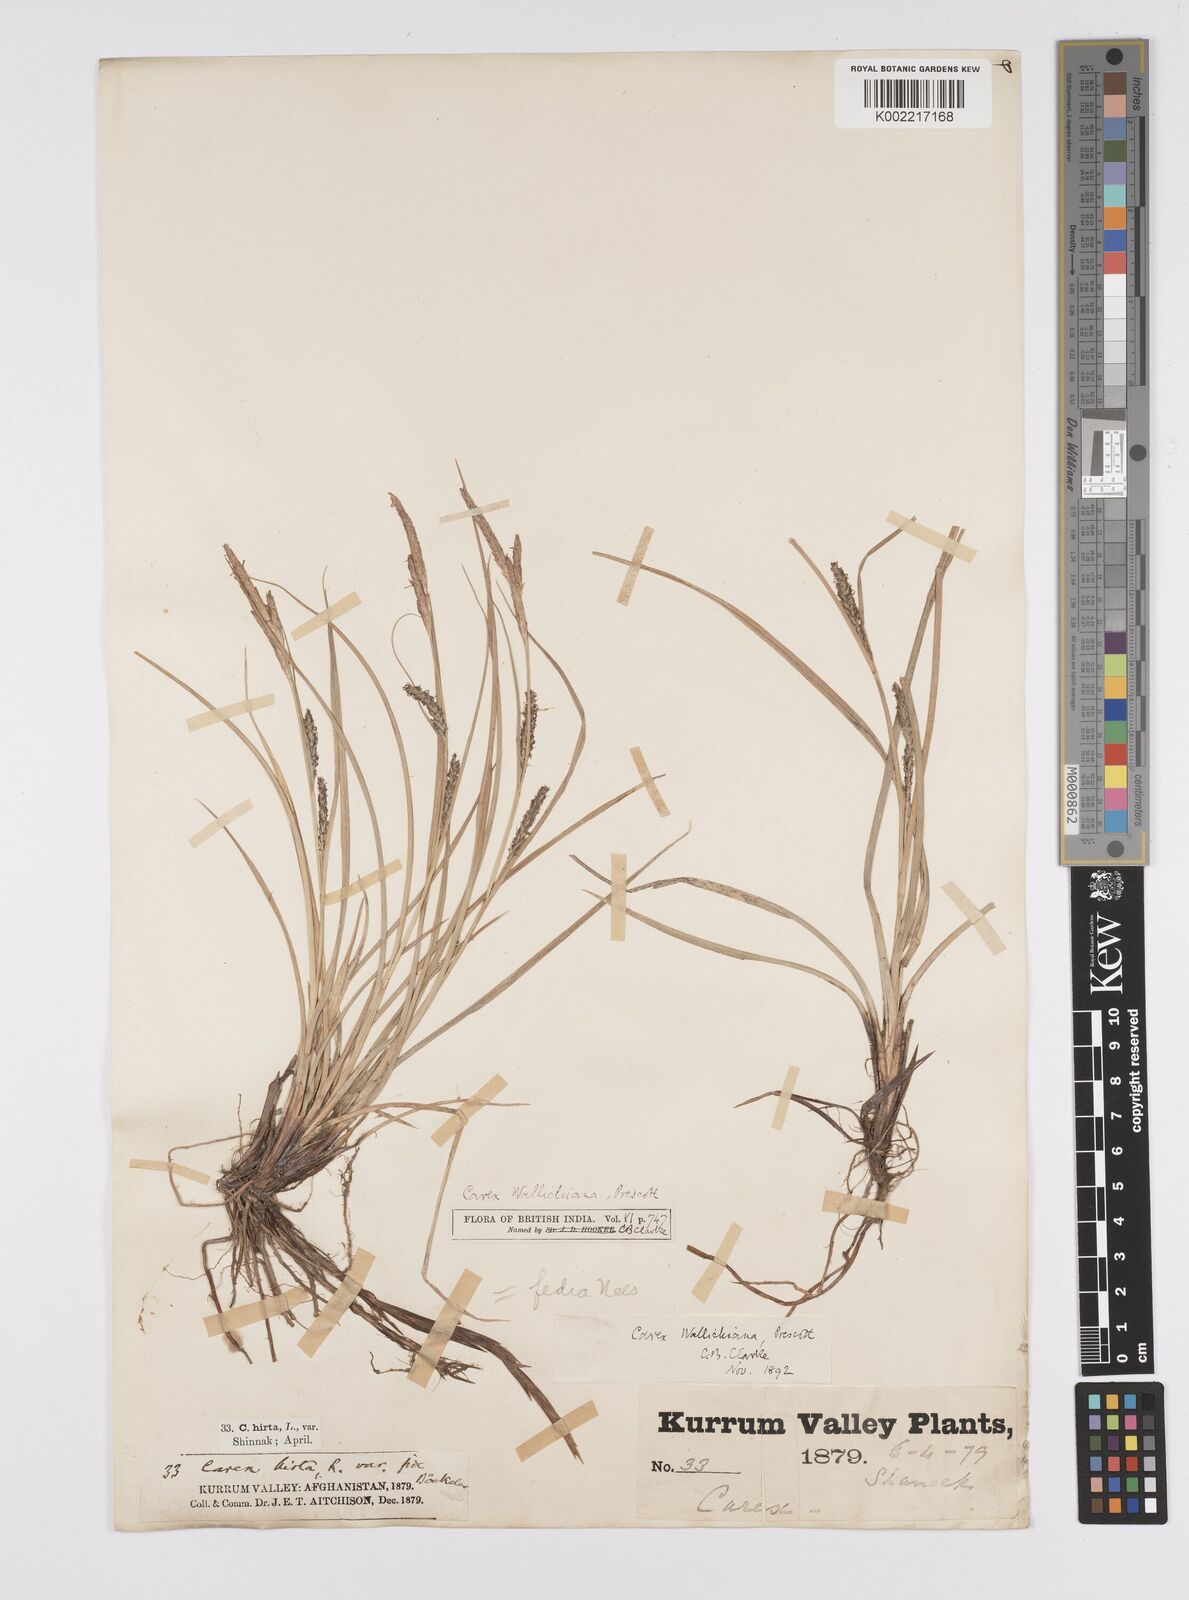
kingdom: Plantae
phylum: Tracheophyta
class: Liliopsida
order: Poales
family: Cyperaceae
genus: Carex
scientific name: Carex fedia
